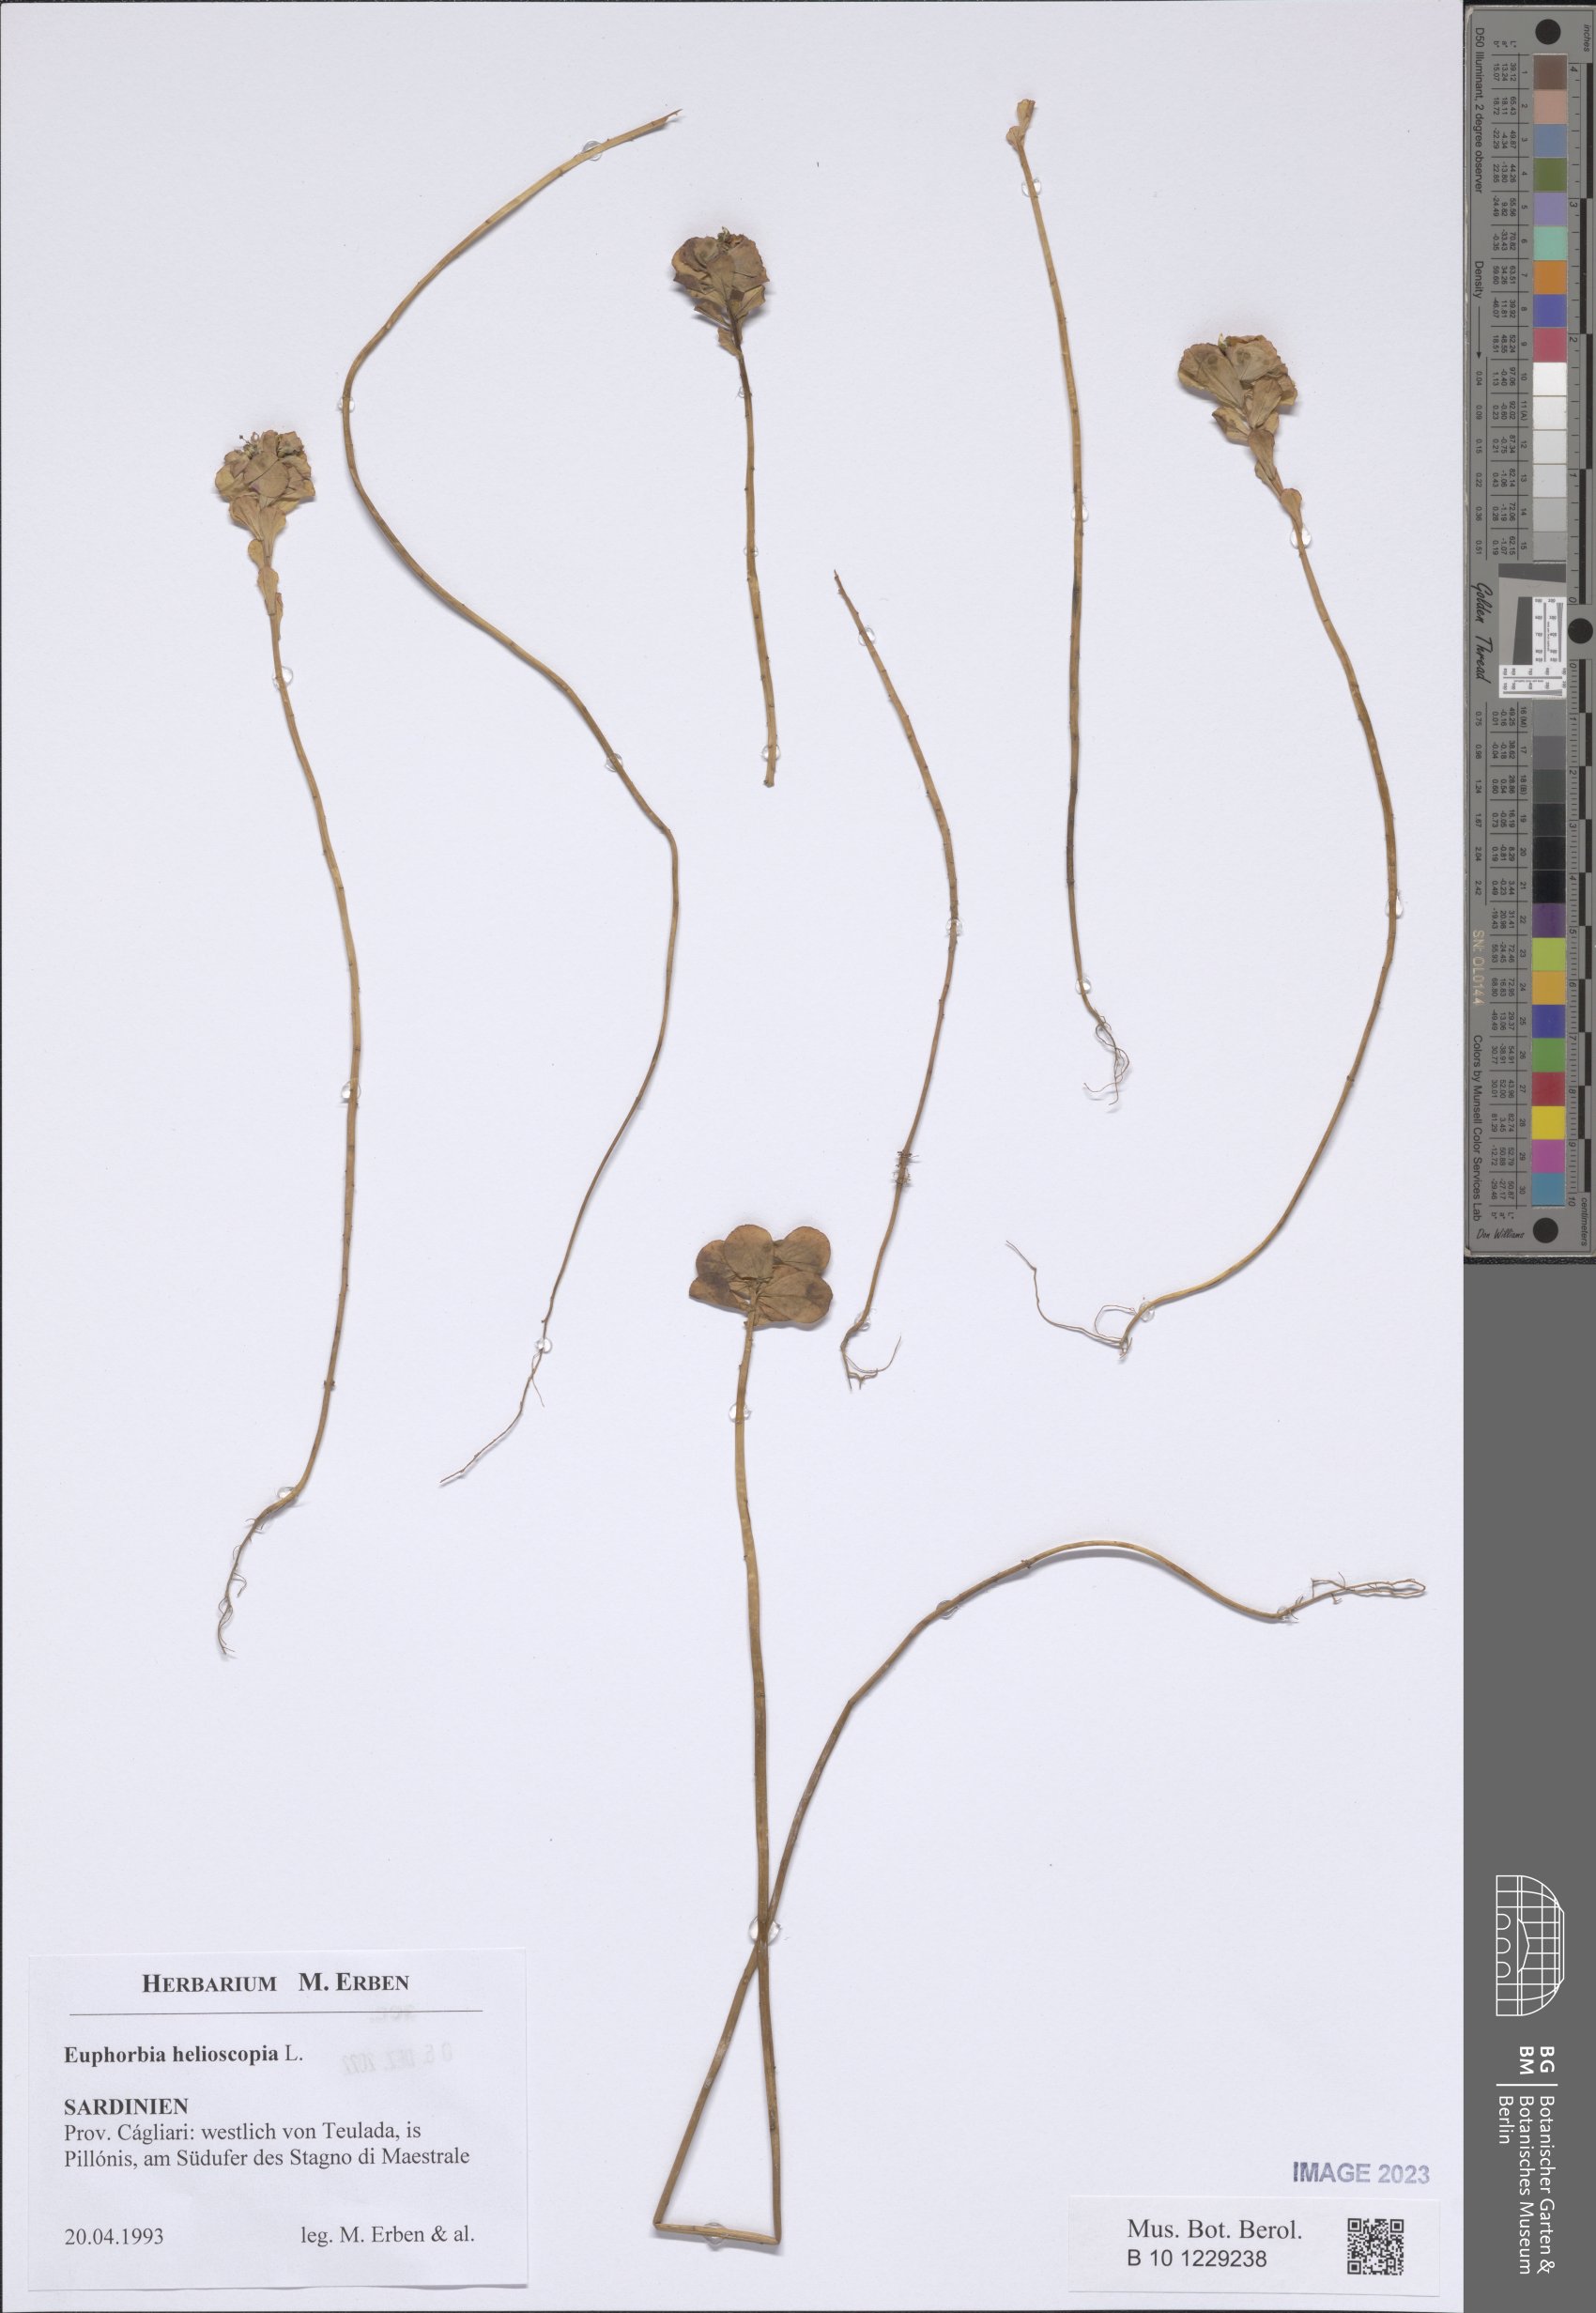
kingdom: Plantae
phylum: Tracheophyta
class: Magnoliopsida
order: Malpighiales
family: Euphorbiaceae
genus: Euphorbia
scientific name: Euphorbia helioscopia
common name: Sun spurge
